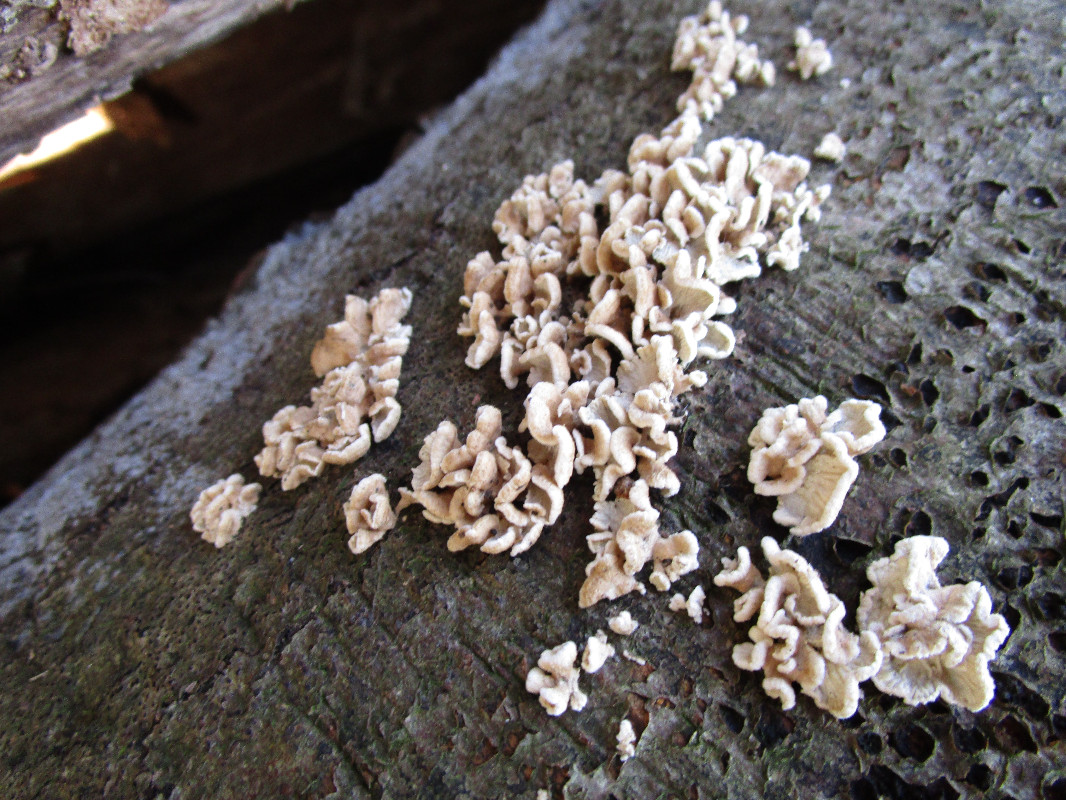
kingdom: Fungi
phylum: Basidiomycota
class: Agaricomycetes
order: Amylocorticiales
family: Amylocorticiaceae
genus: Plicaturopsis
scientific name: Plicaturopsis crispa
